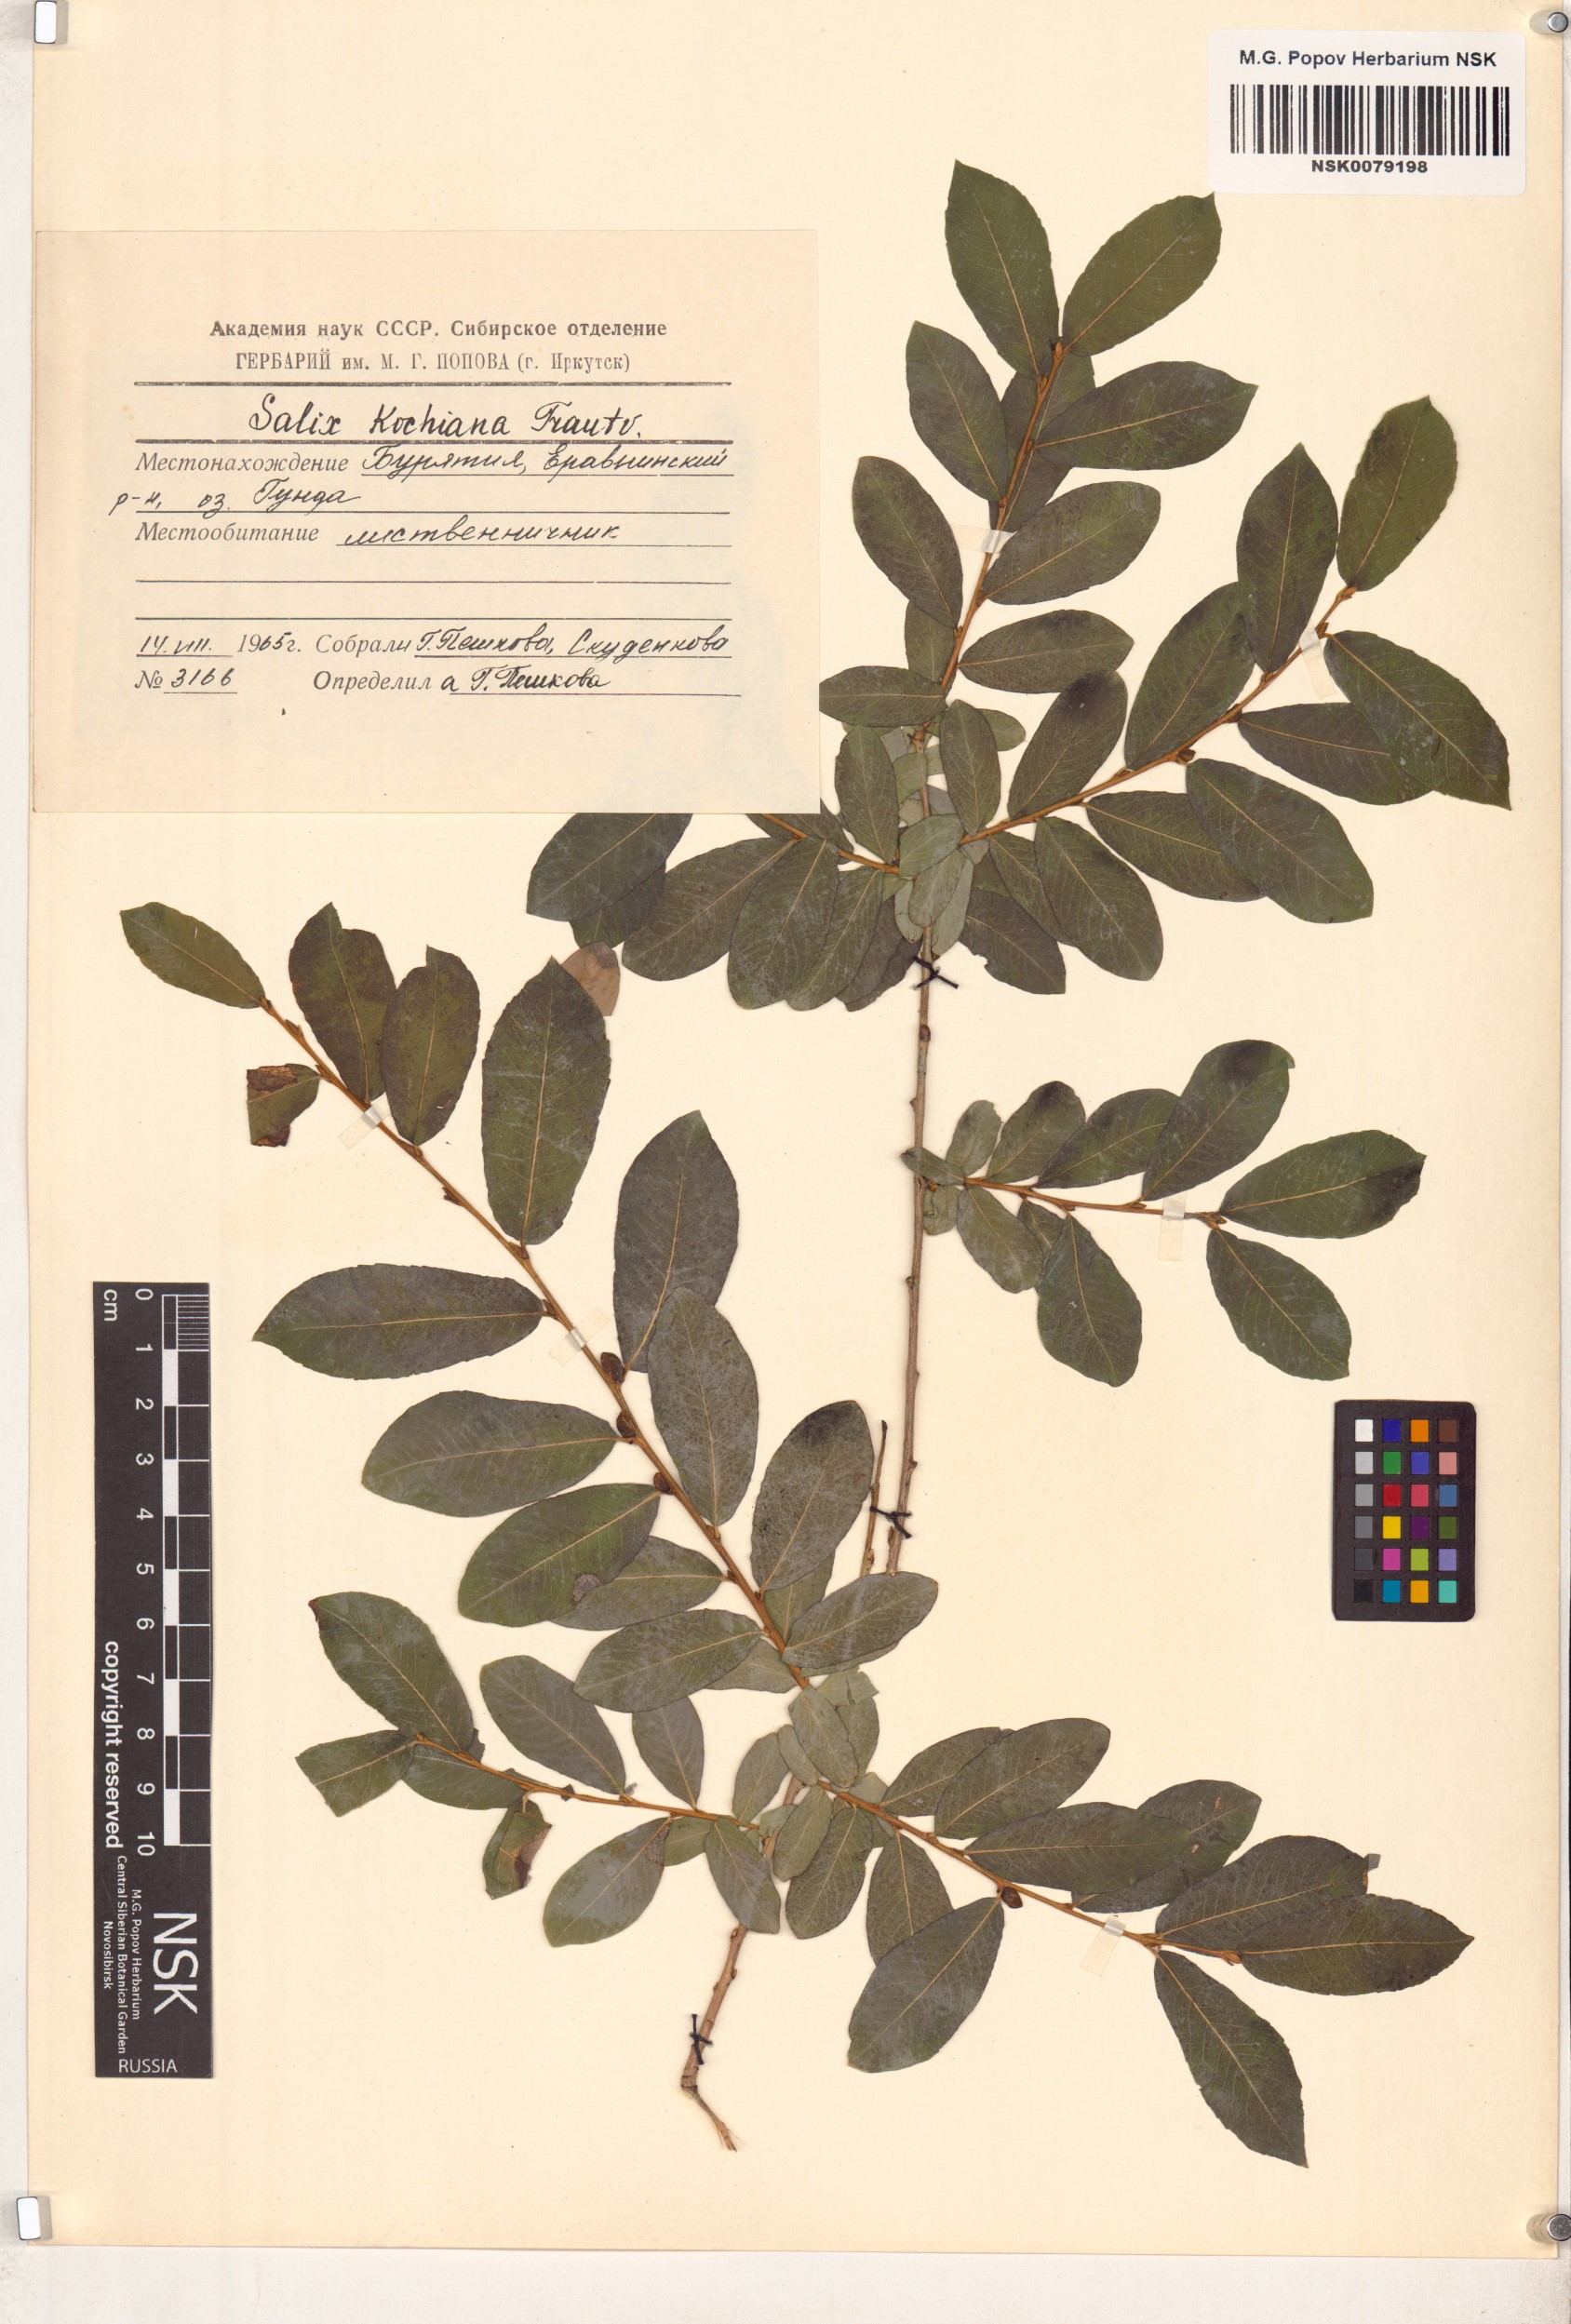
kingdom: Plantae
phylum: Tracheophyta
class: Magnoliopsida
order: Malpighiales
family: Salicaceae
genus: Salix
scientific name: Salix kochiana
